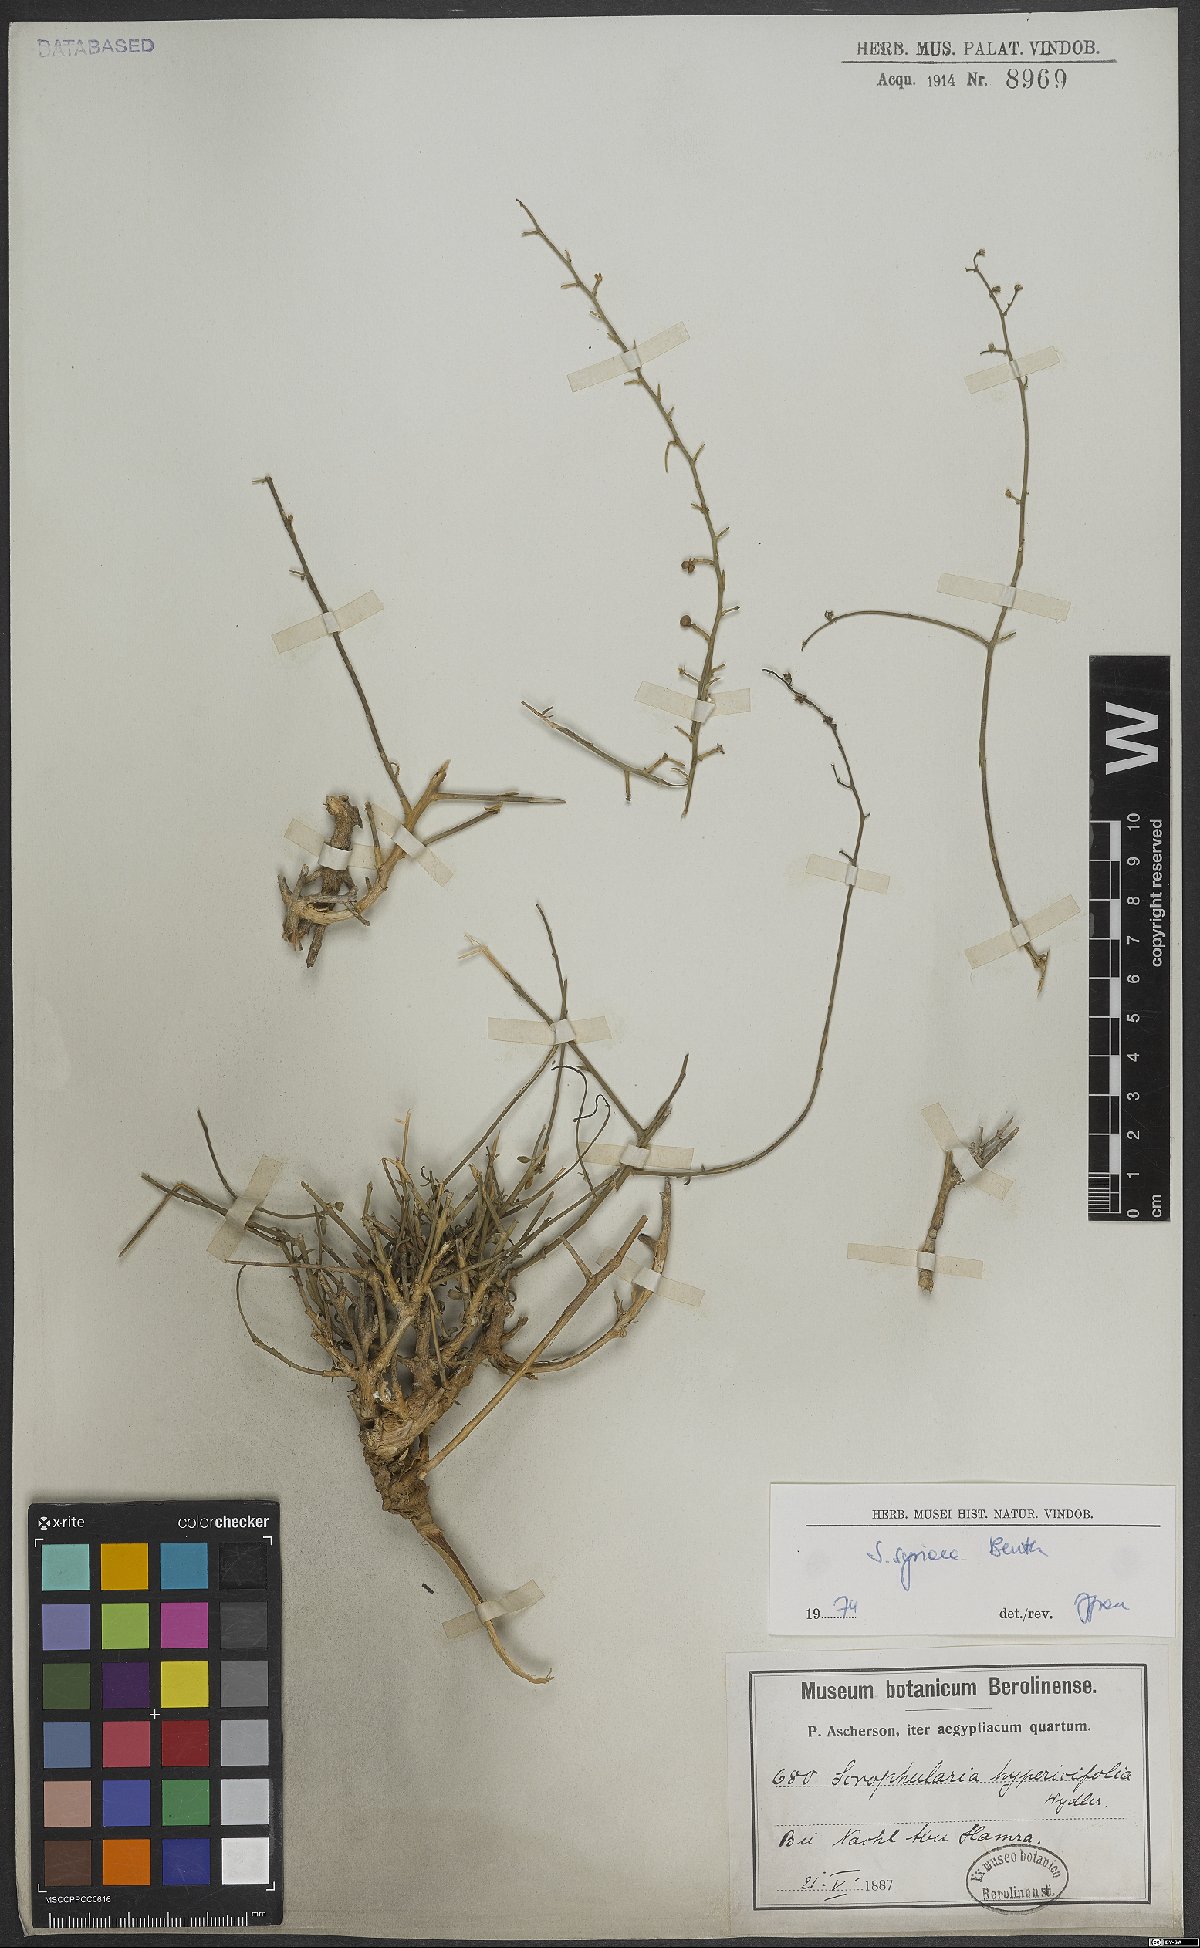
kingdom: Plantae
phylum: Tracheophyta
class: Magnoliopsida
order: Lamiales
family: Scrophulariaceae
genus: Scrophularia
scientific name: Scrophularia hypericifolia
